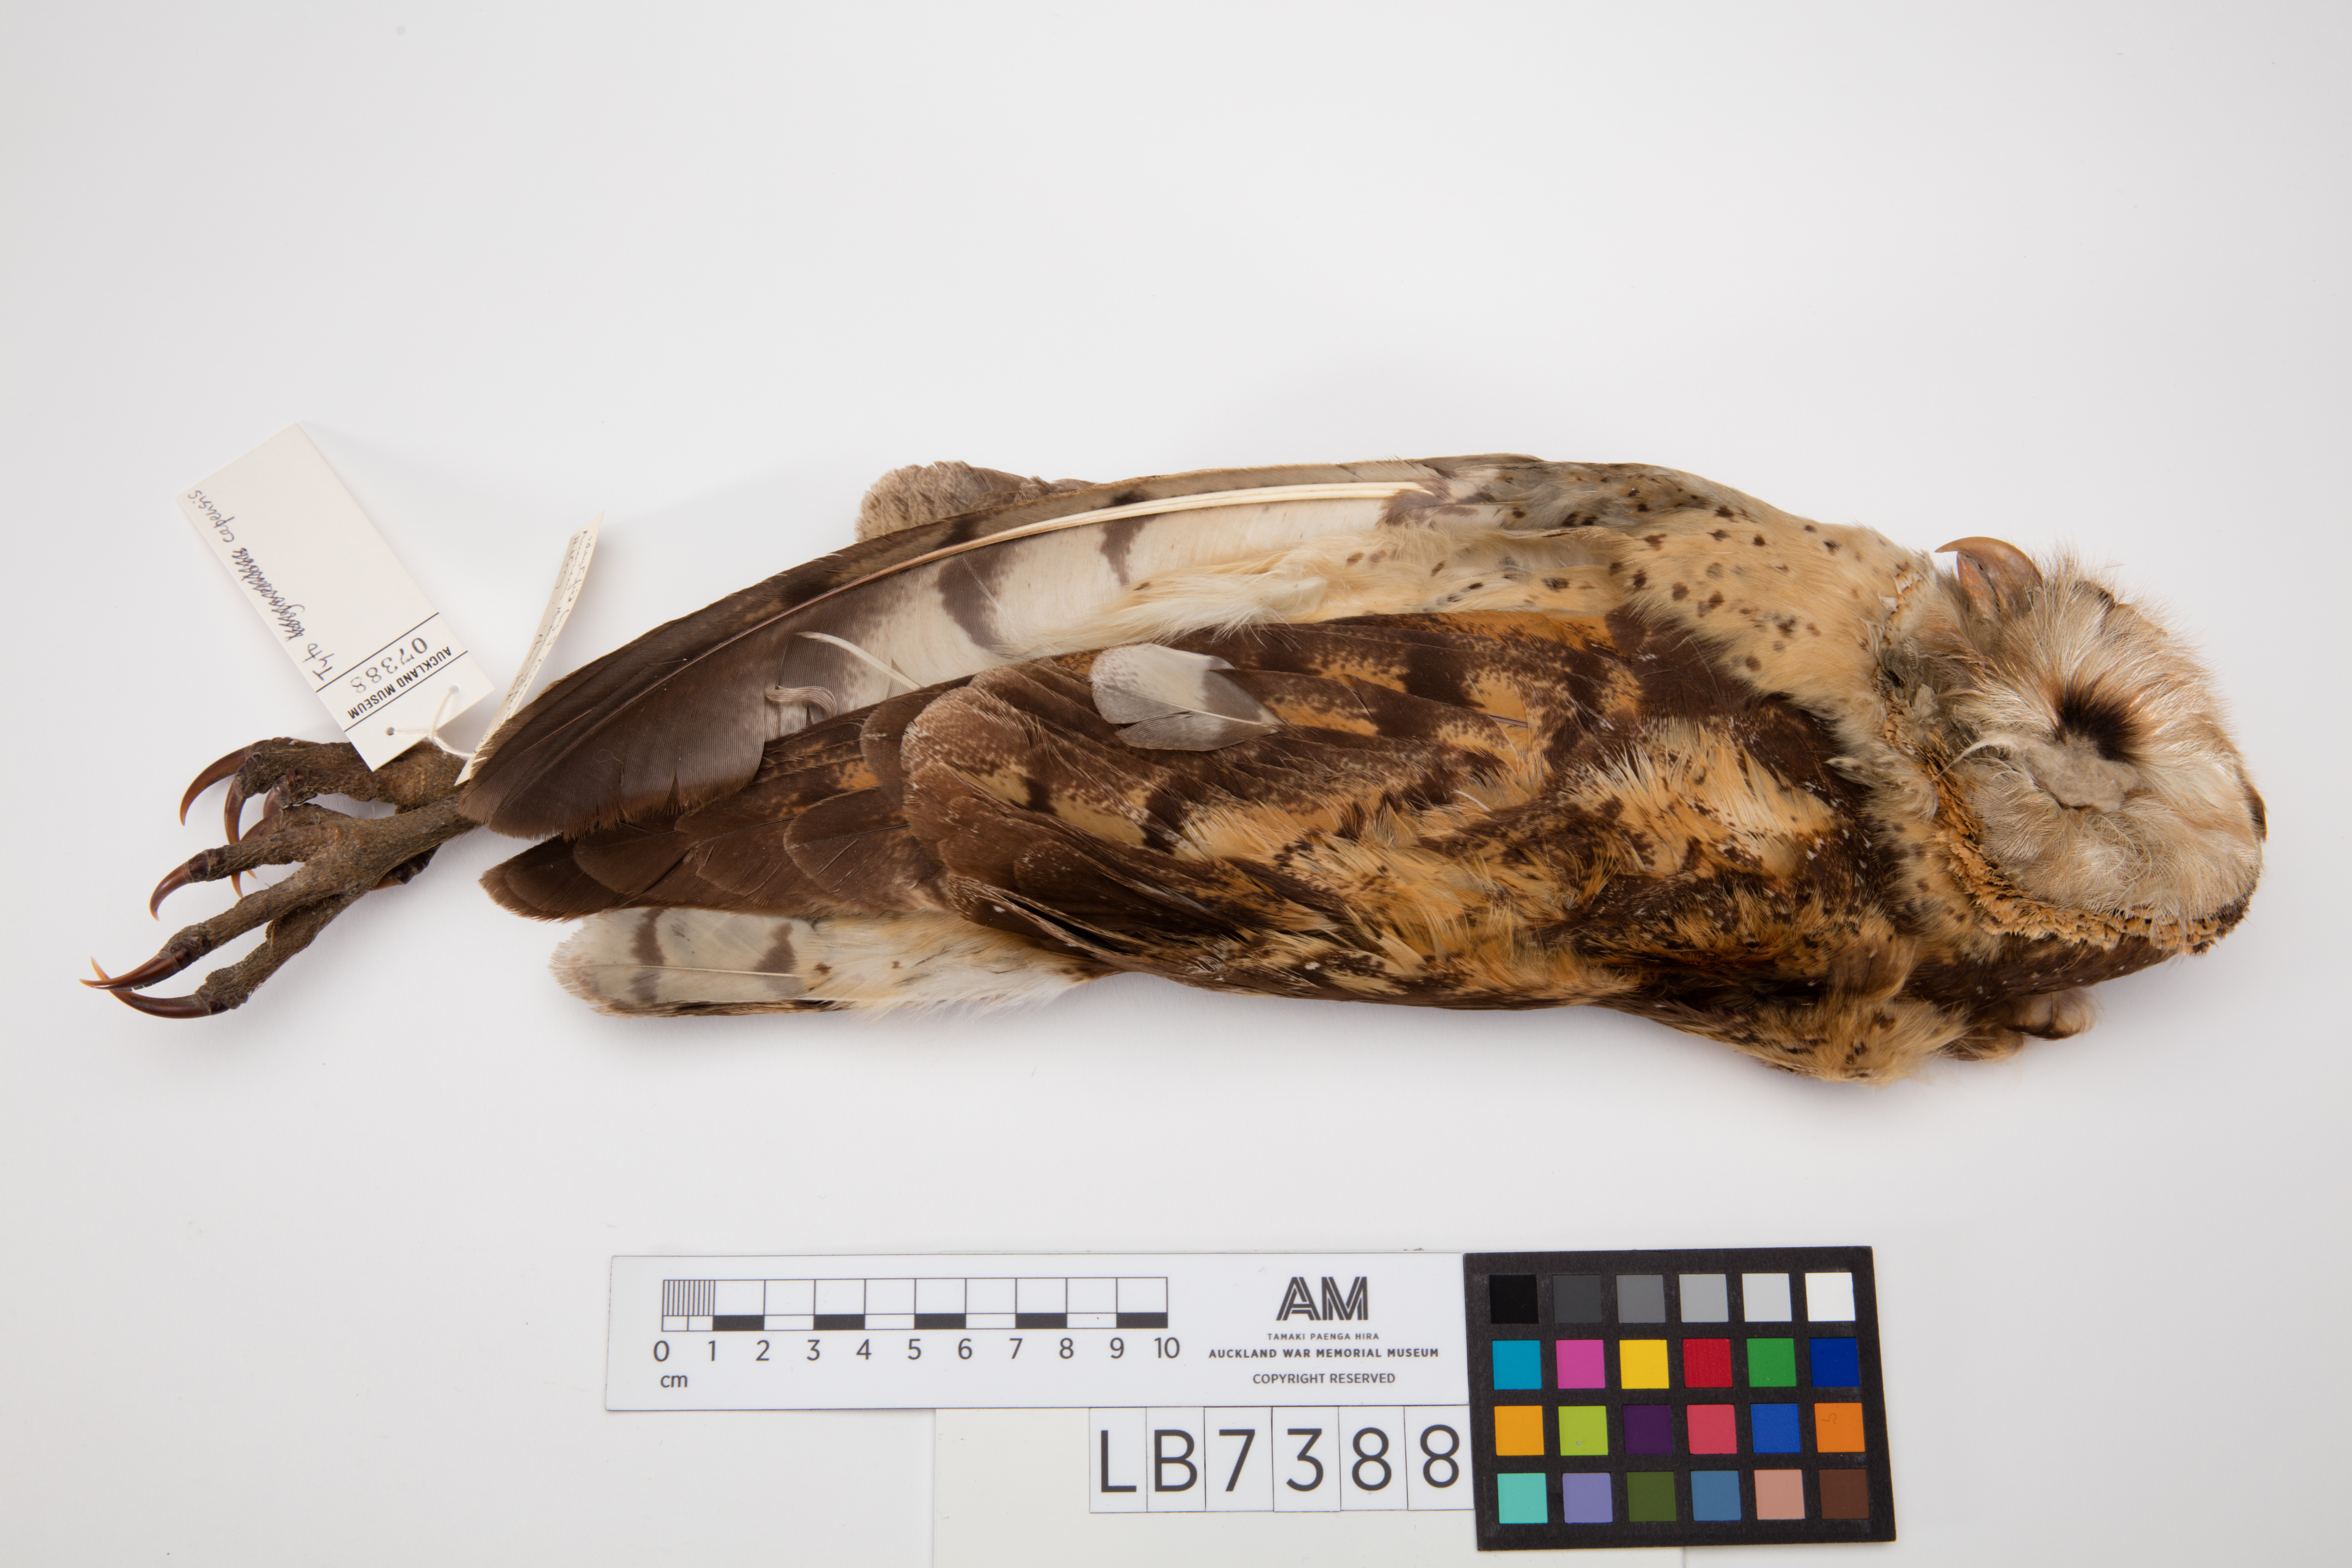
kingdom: Animalia
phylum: Chordata
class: Aves
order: Strigiformes
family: Tytonidae
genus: Tyto
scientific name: Tyto capensis
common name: African grass-owl
